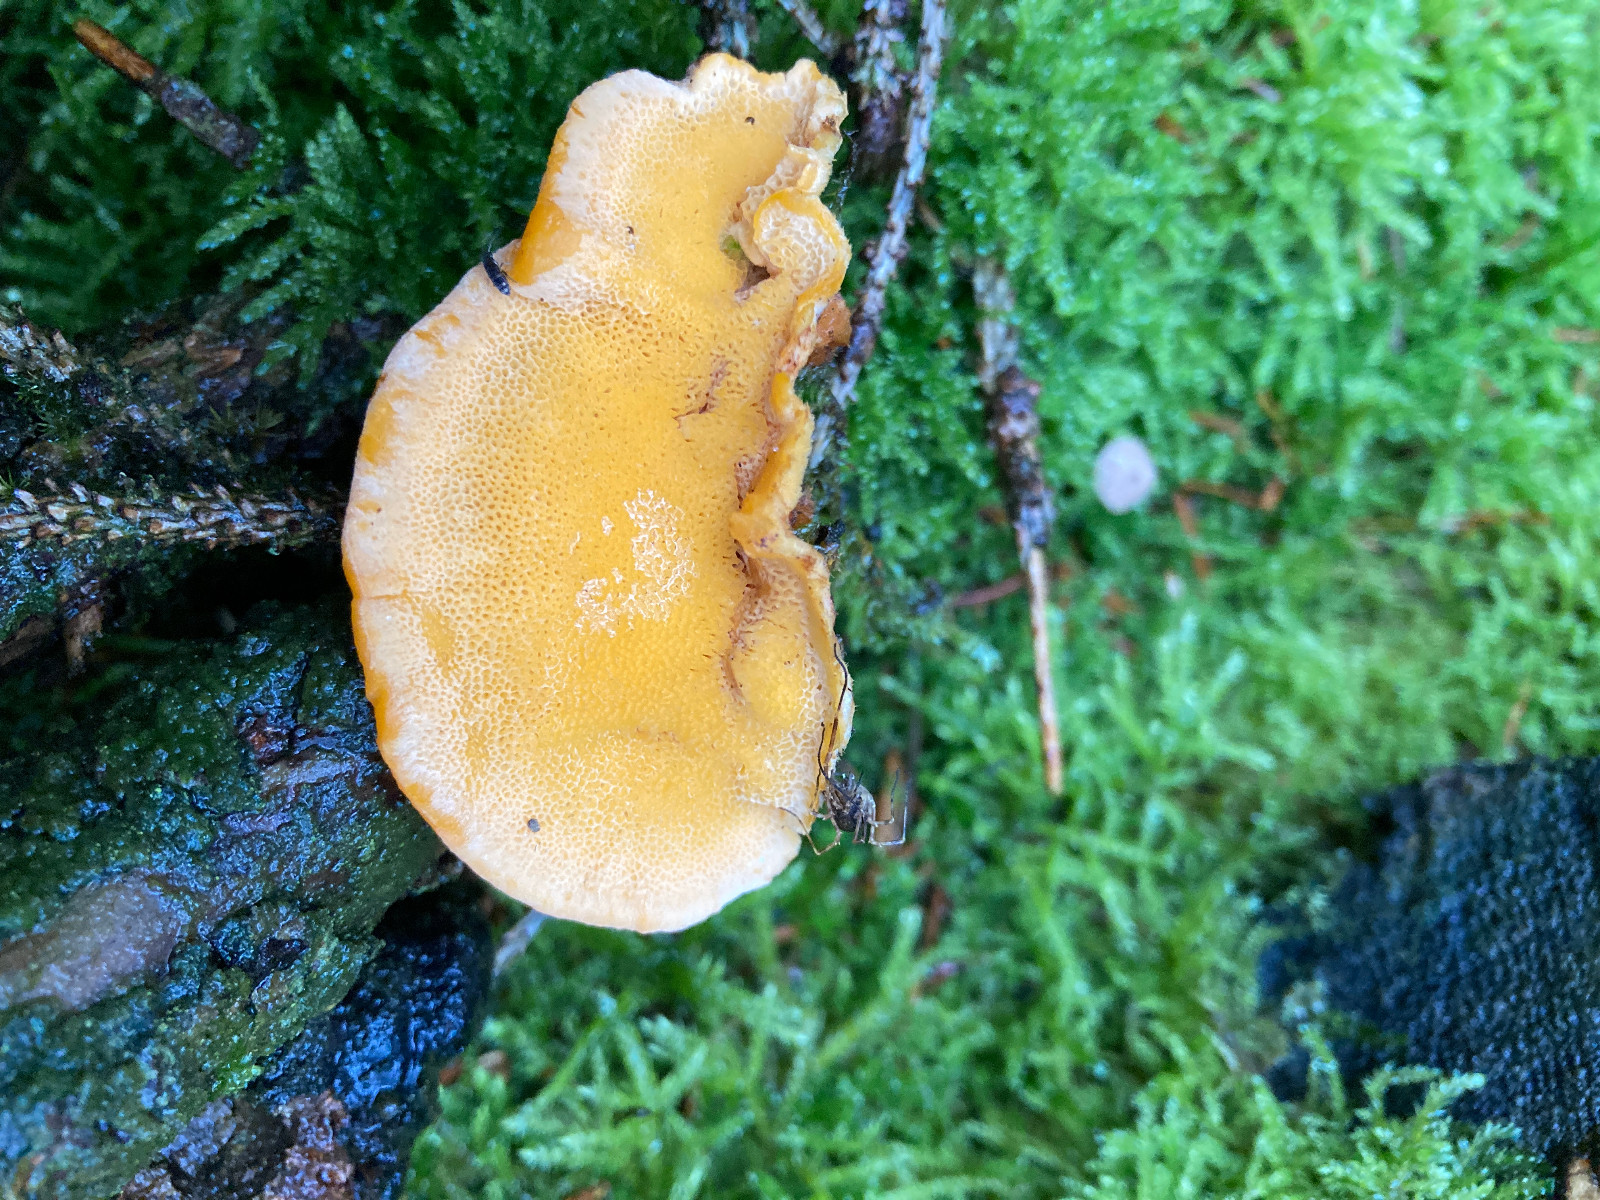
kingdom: Fungi
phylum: Basidiomycota
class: Agaricomycetes
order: Polyporales
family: Pycnoporellaceae
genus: Pycnoporellus
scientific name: Pycnoporellus fulgens
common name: flammeporesvamp
